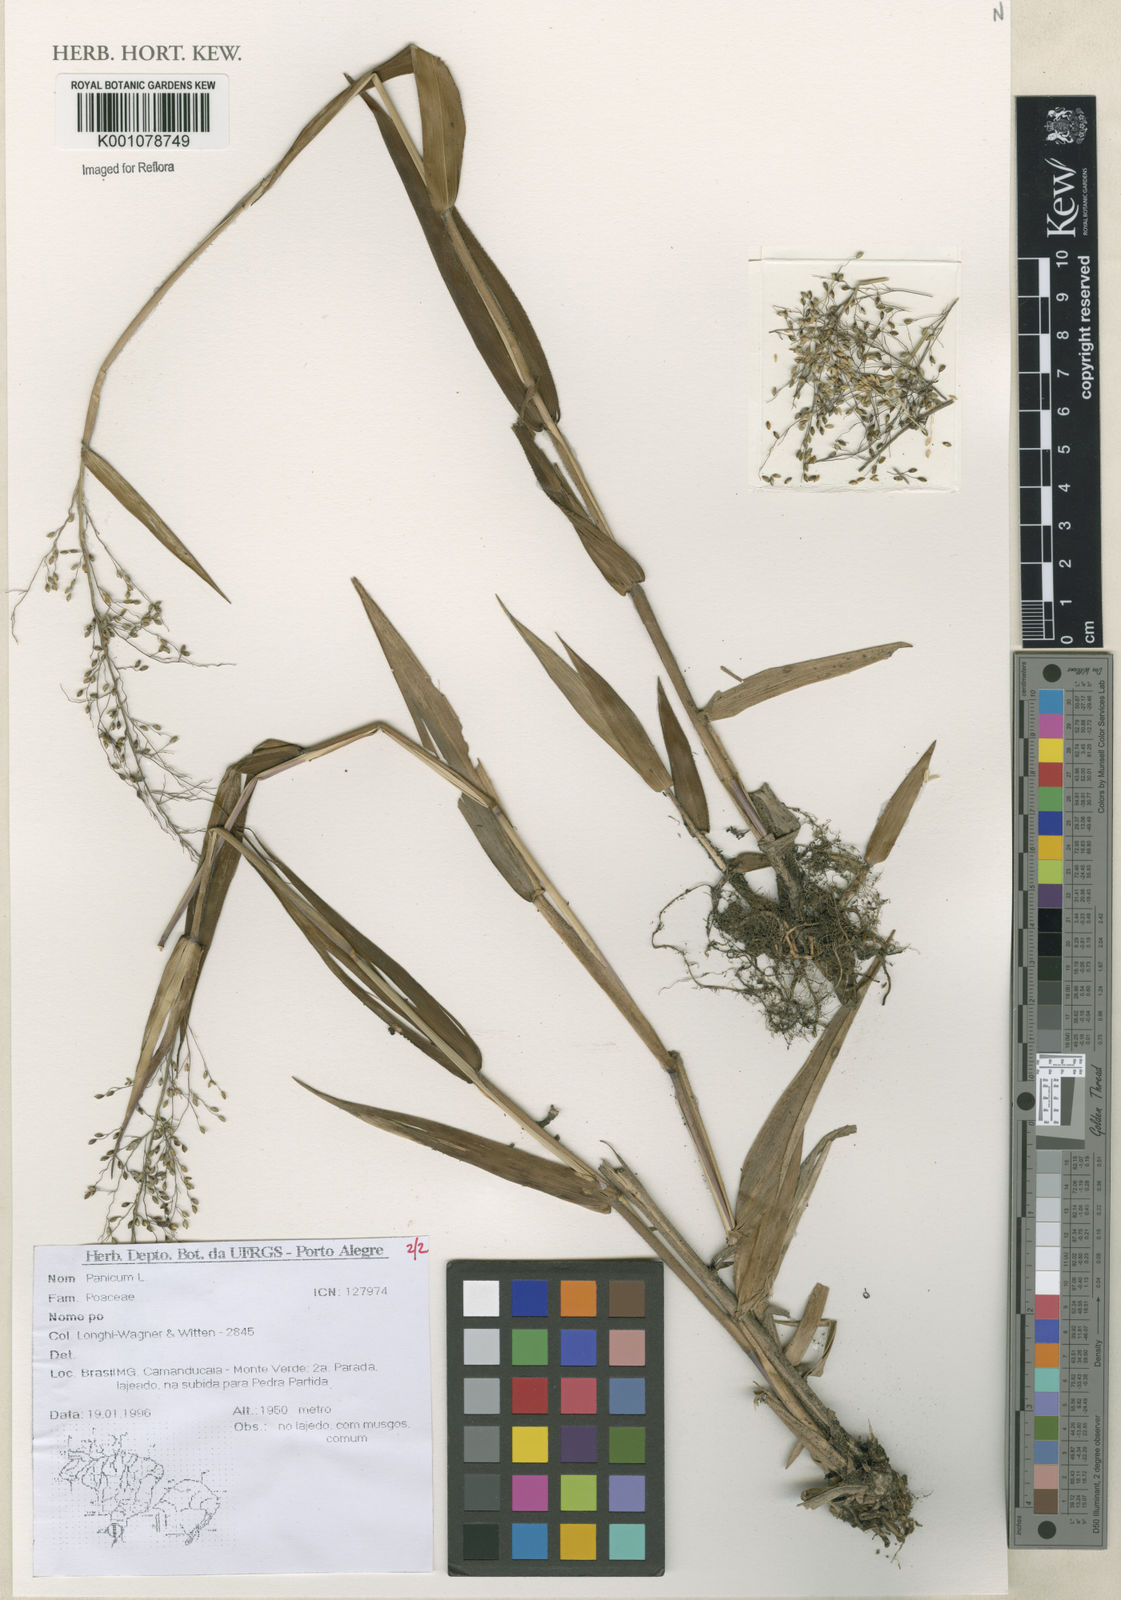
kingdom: Plantae
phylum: Tracheophyta
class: Liliopsida
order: Poales
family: Poaceae
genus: Panicum
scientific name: Panicum
